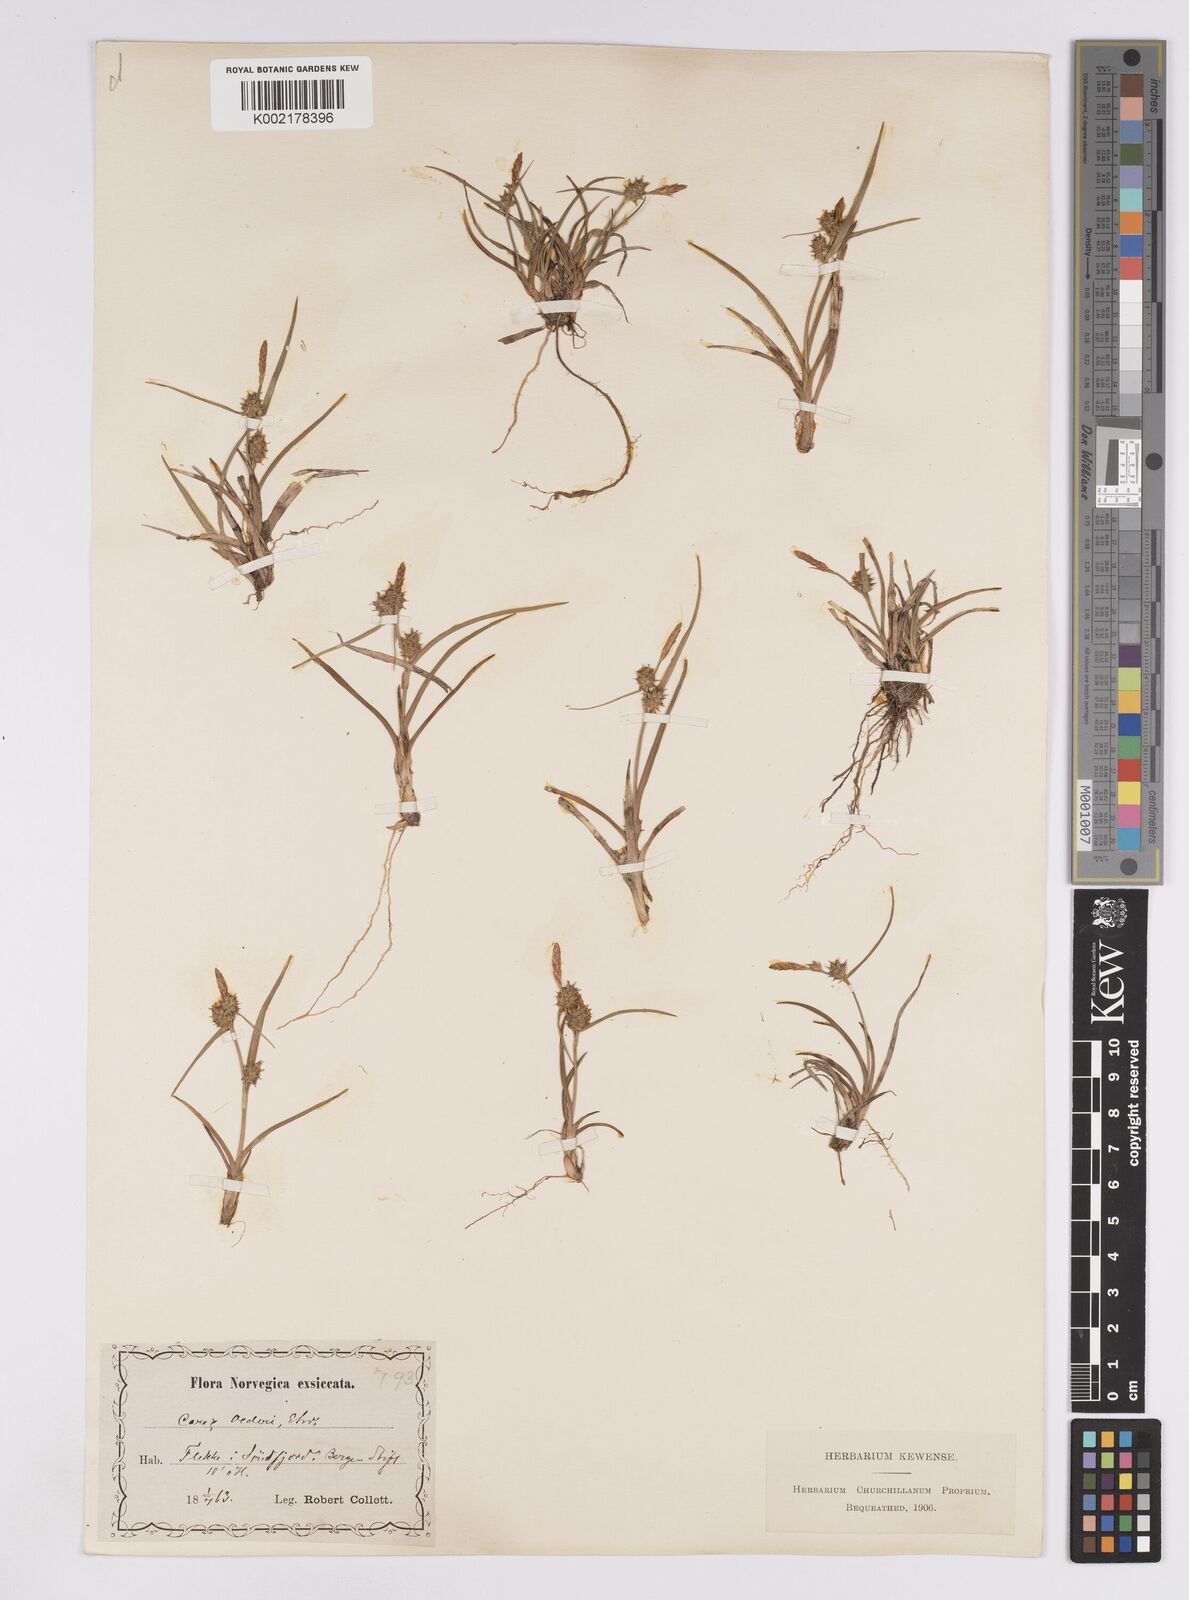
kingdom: Plantae
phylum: Tracheophyta
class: Liliopsida
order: Poales
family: Cyperaceae
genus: Carex
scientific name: Carex demissa
